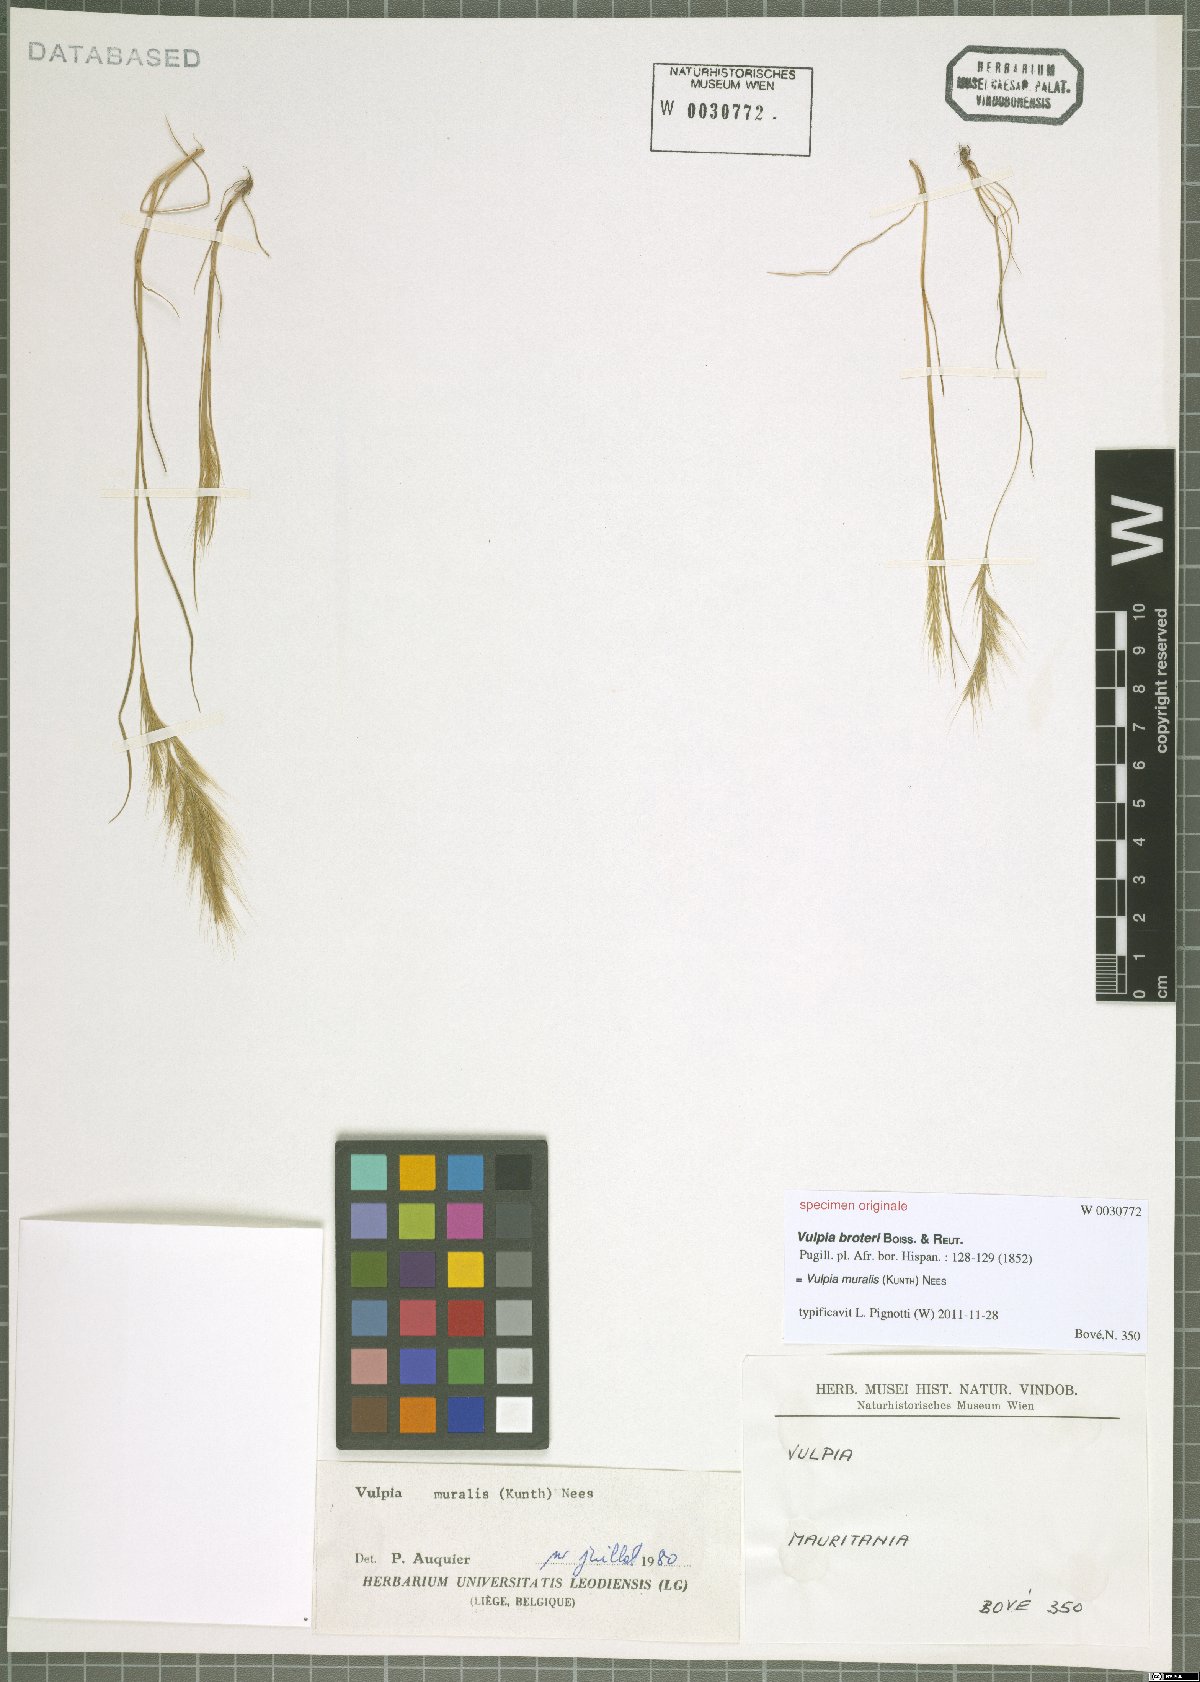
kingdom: Plantae
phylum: Tracheophyta
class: Liliopsida
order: Poales
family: Poaceae
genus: Festuca
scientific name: Festuca muralis
